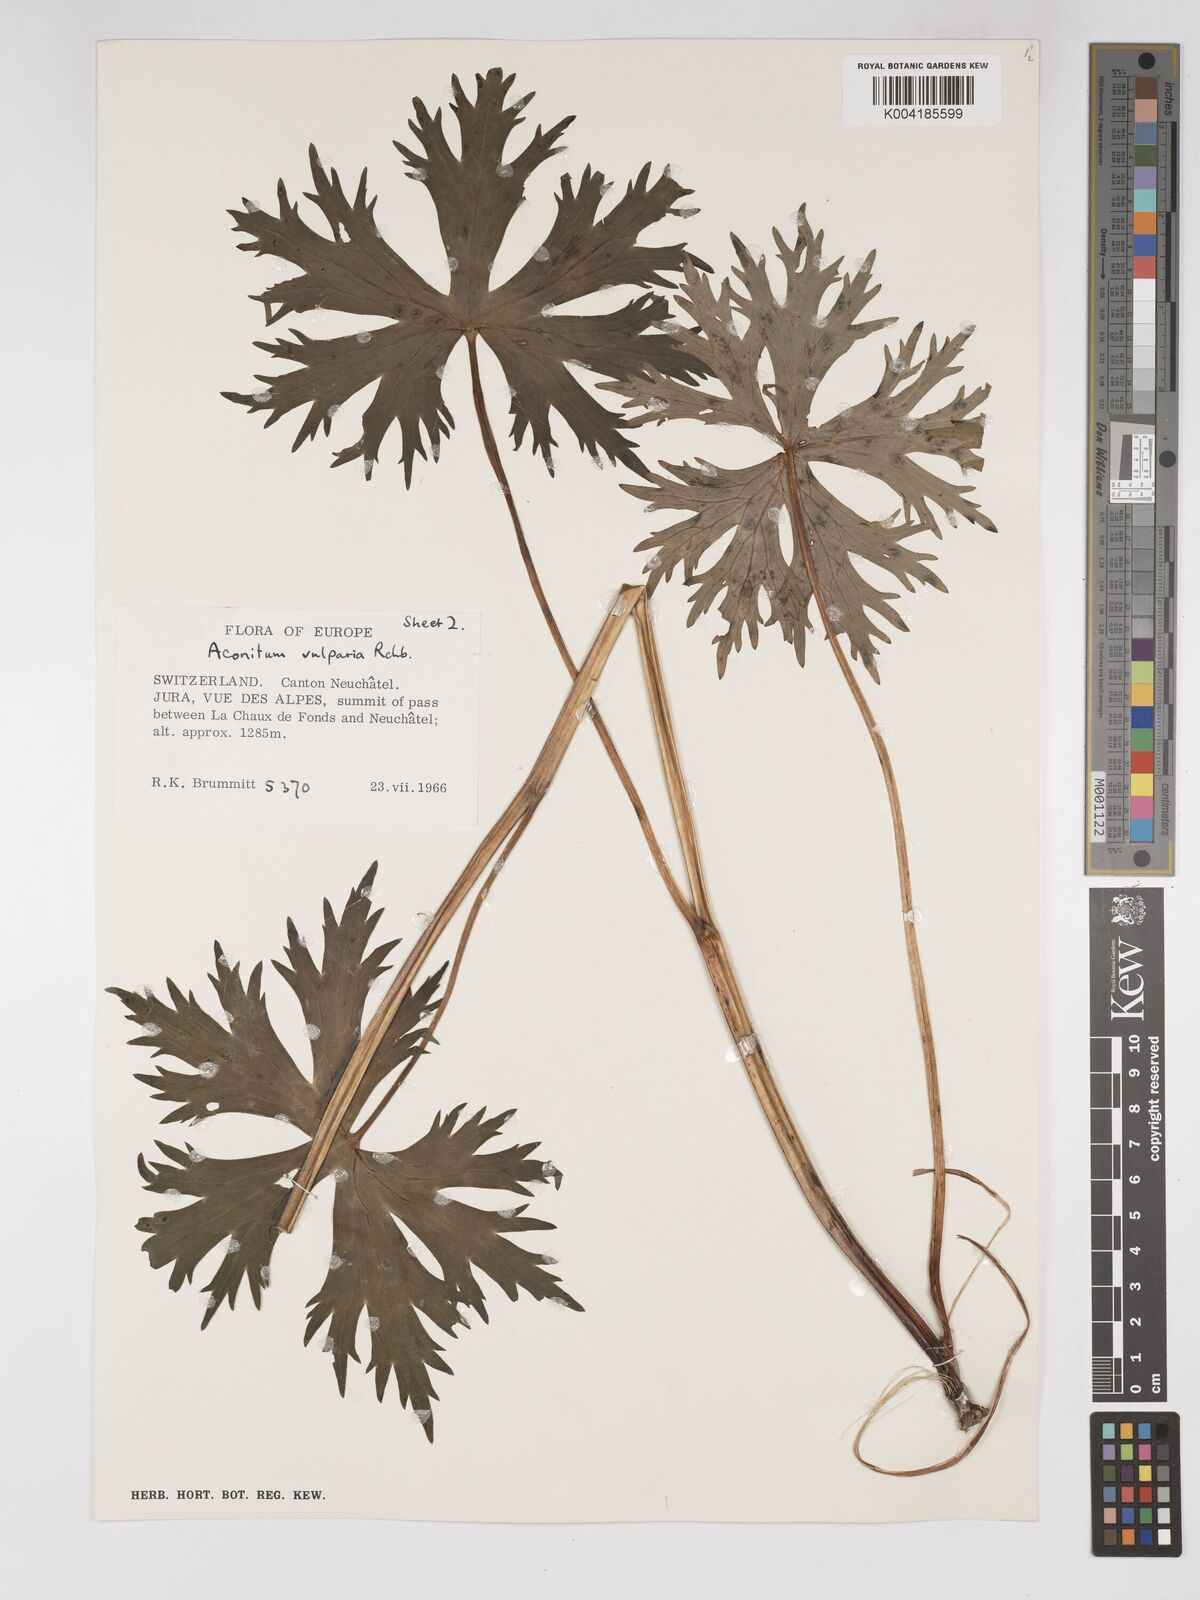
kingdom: Plantae
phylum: Tracheophyta
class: Magnoliopsida
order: Ranunculales
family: Ranunculaceae
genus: Aconitum
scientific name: Aconitum lycoctonum
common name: Wolf's-bane
